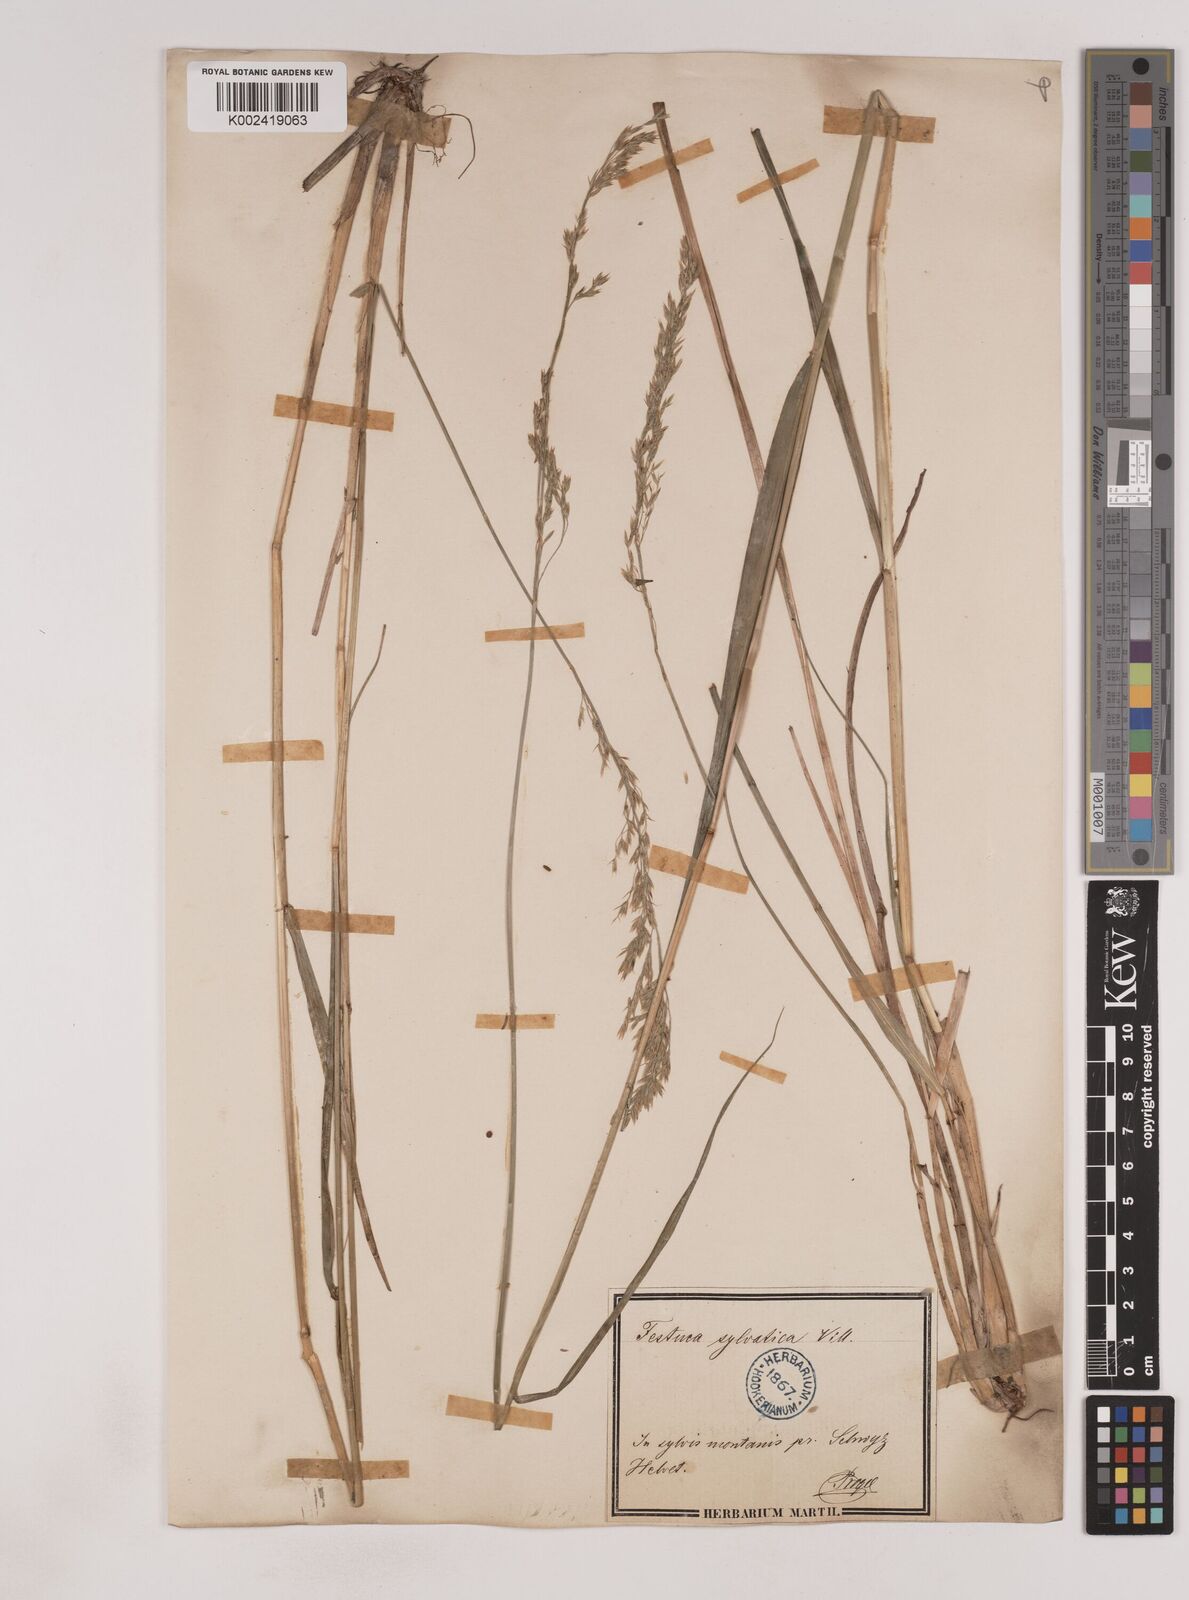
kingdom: Plantae
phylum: Tracheophyta
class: Liliopsida
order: Poales
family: Poaceae
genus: Festuca
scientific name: Festuca drymeja
